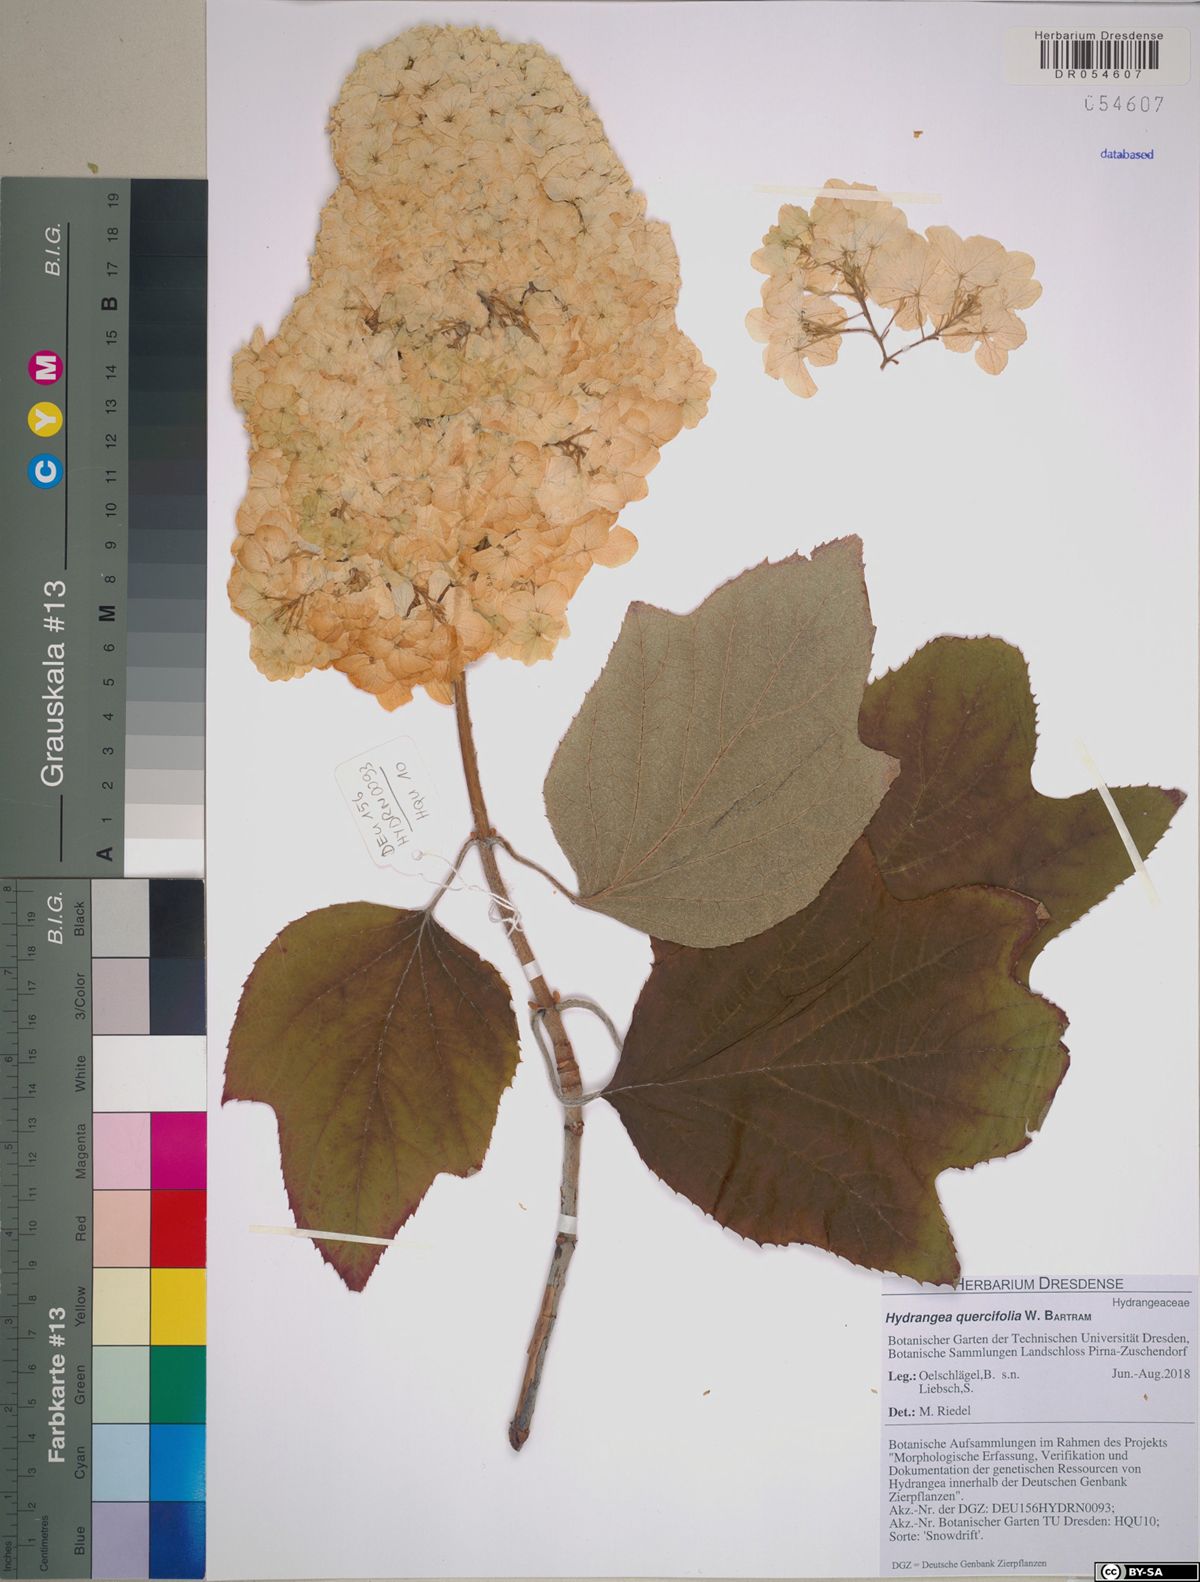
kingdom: Plantae
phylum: Tracheophyta
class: Magnoliopsida
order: Cornales
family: Hydrangeaceae
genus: Hydrangea
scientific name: Hydrangea quercifolia
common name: Oak-leaf hydrangea
